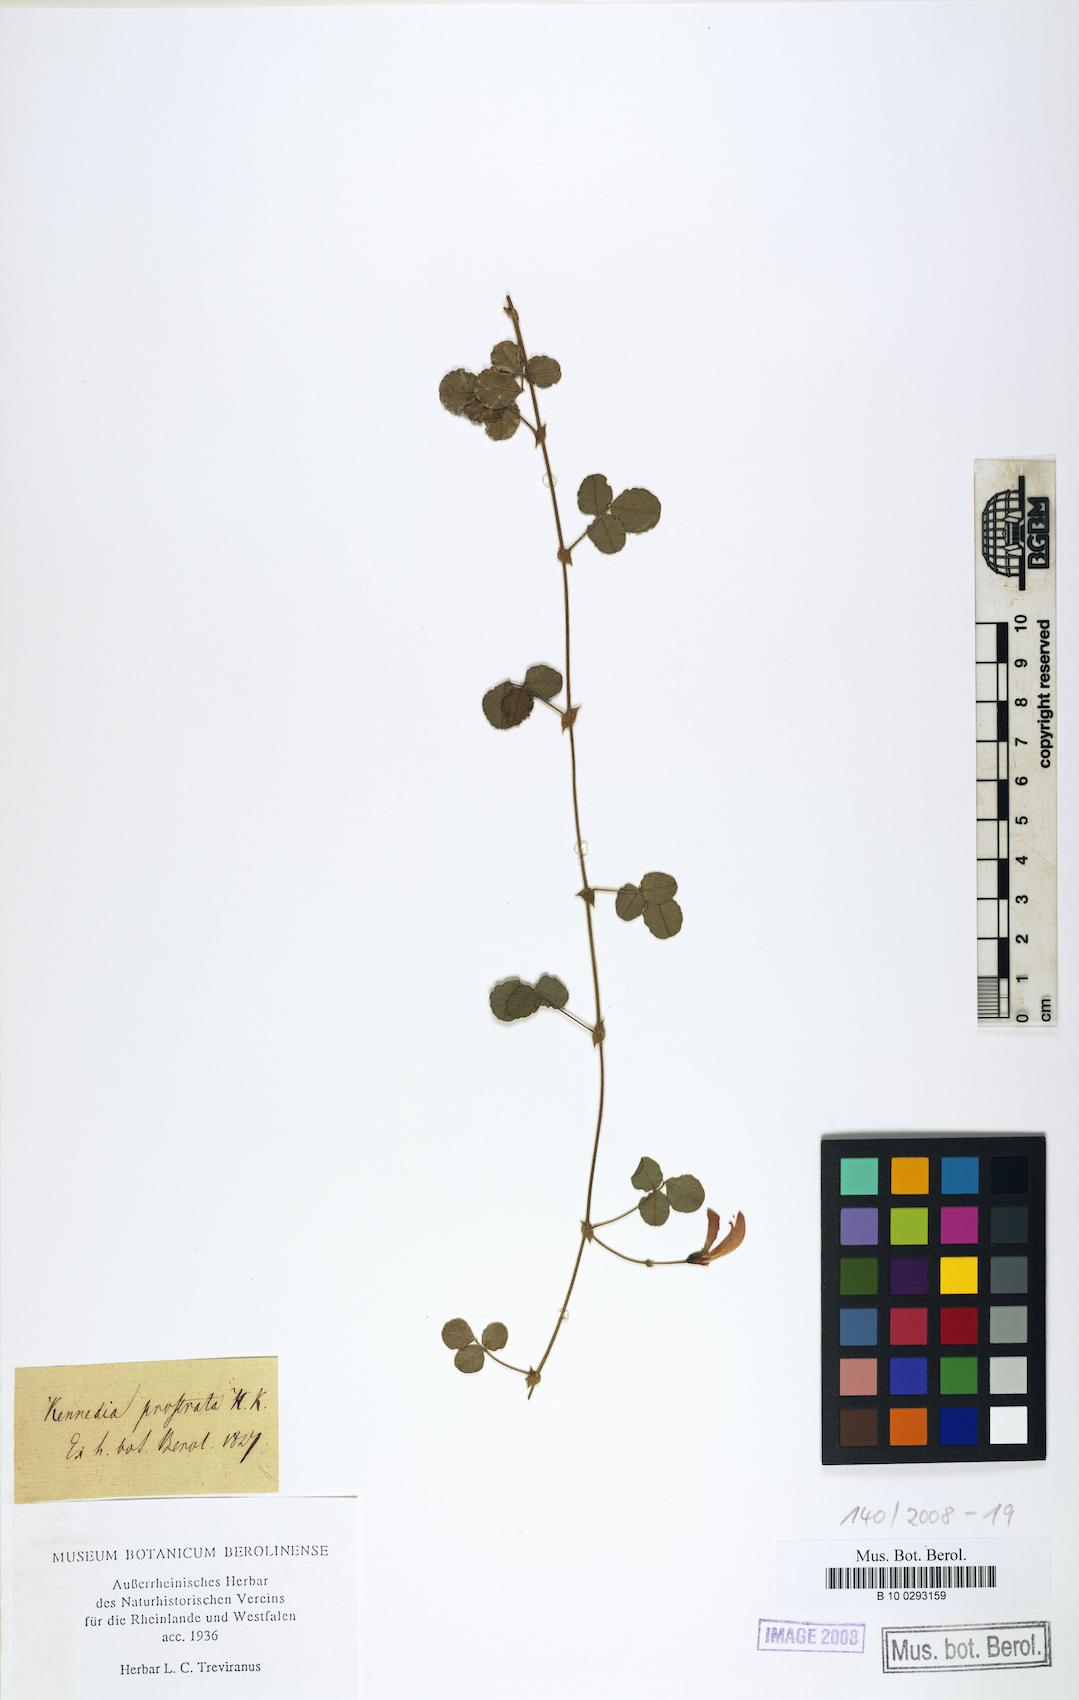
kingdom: Plantae
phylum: Tracheophyta
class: Magnoliopsida
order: Fabales
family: Fabaceae
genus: Kennedia
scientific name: Kennedia prostrata
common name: Running-postman
